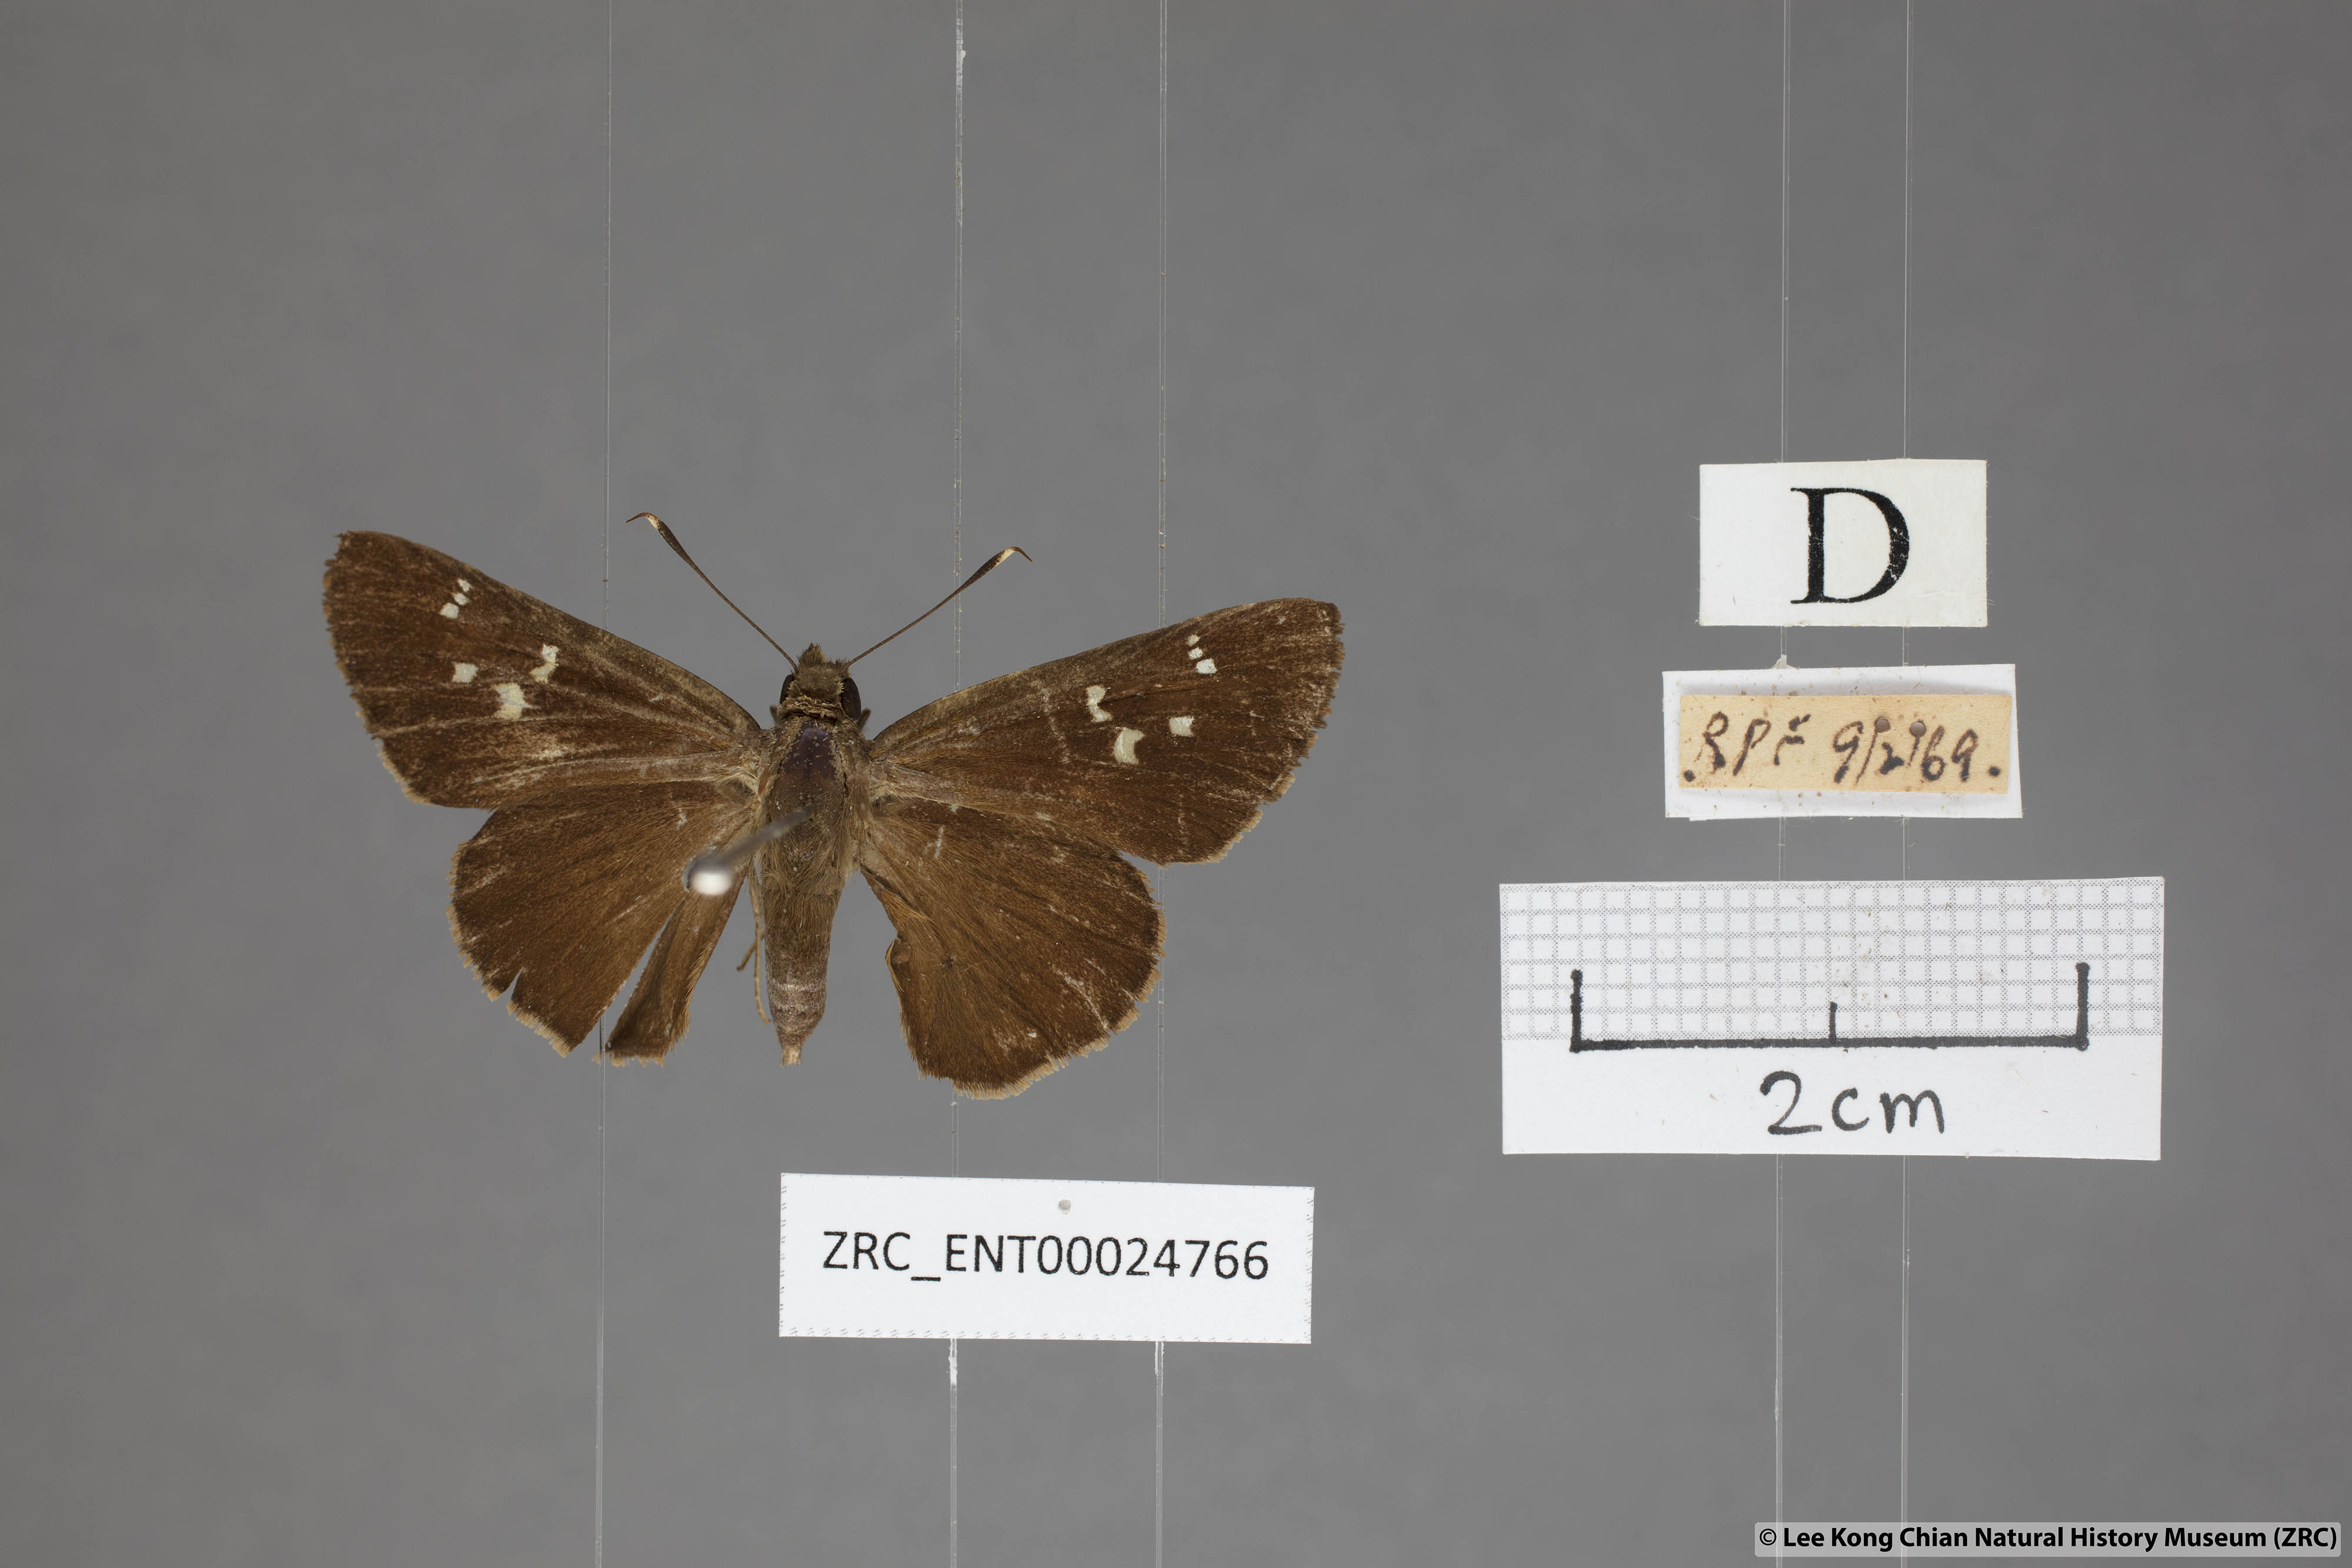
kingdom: Animalia
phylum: Arthropoda
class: Insecta
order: Lepidoptera
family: Hesperiidae
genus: Hyarotis
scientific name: Hyarotis microstictum
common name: Small brush flitter
